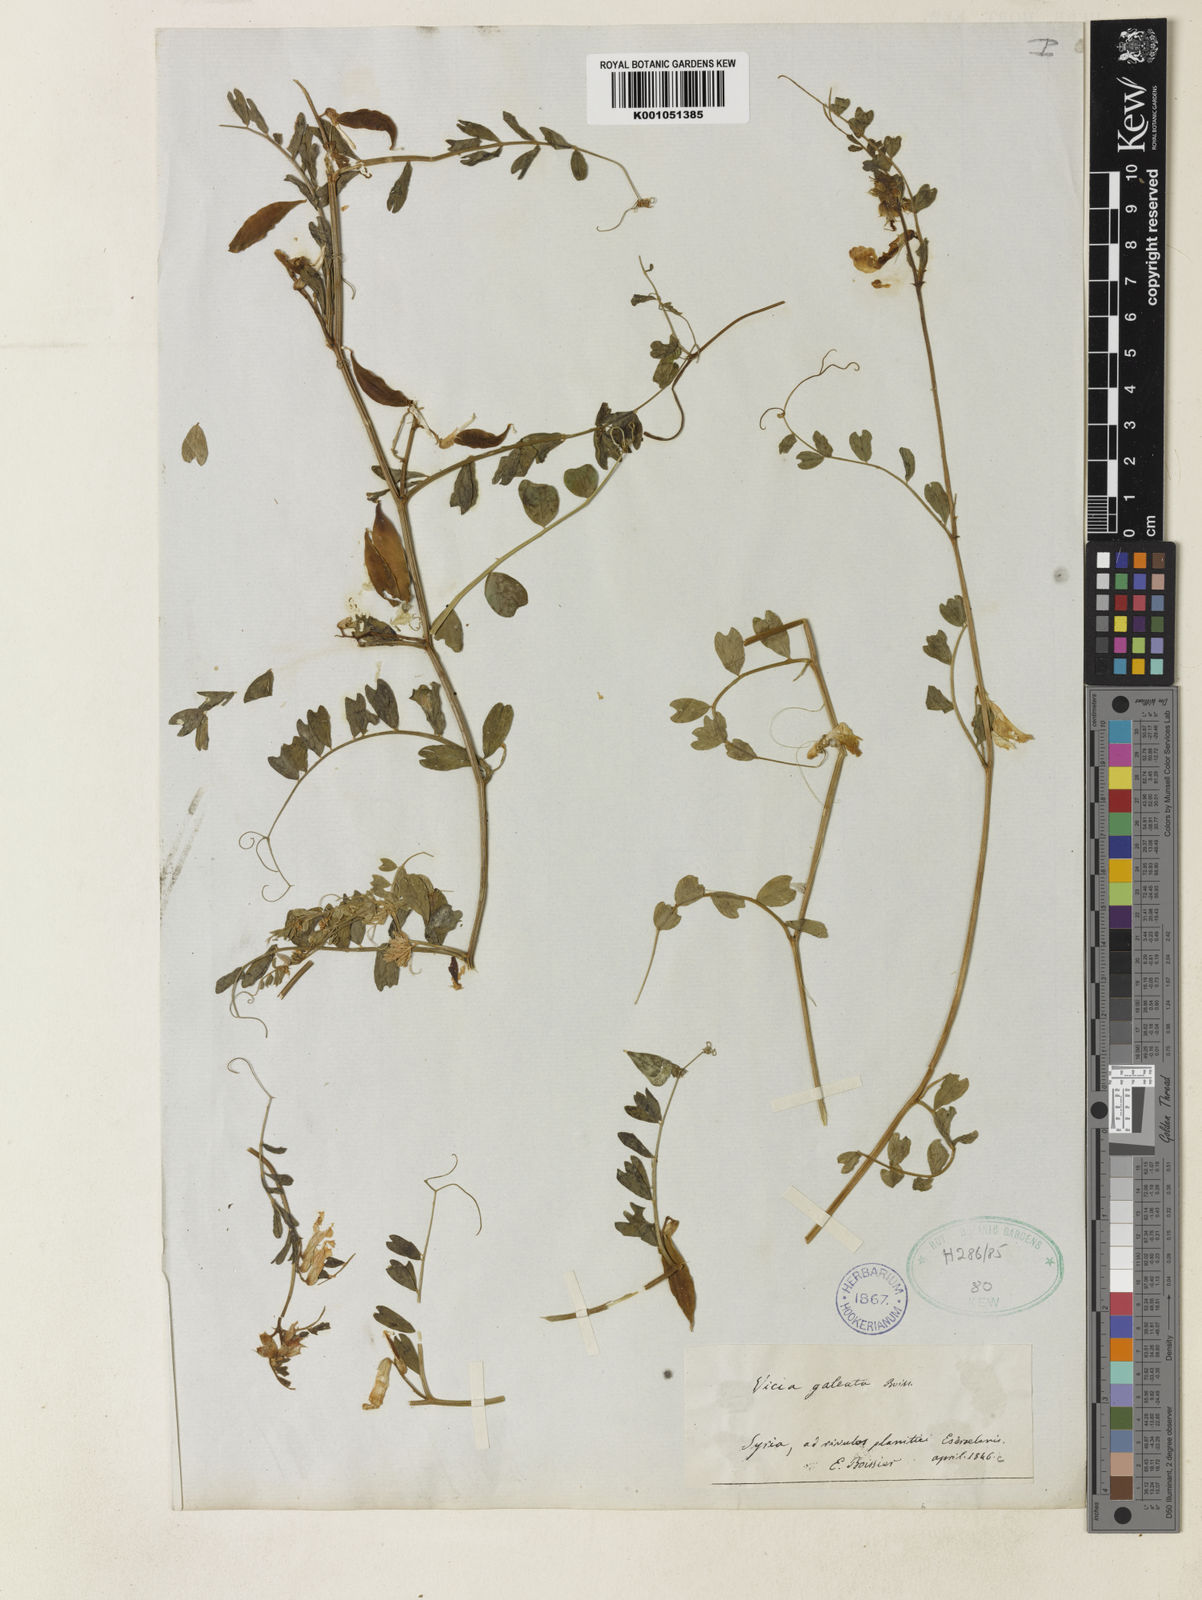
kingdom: Plantae
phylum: Tracheophyta
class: Magnoliopsida
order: Fabales
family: Fabaceae
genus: Vicia
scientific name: Vicia galeata
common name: Helmeted vetch
